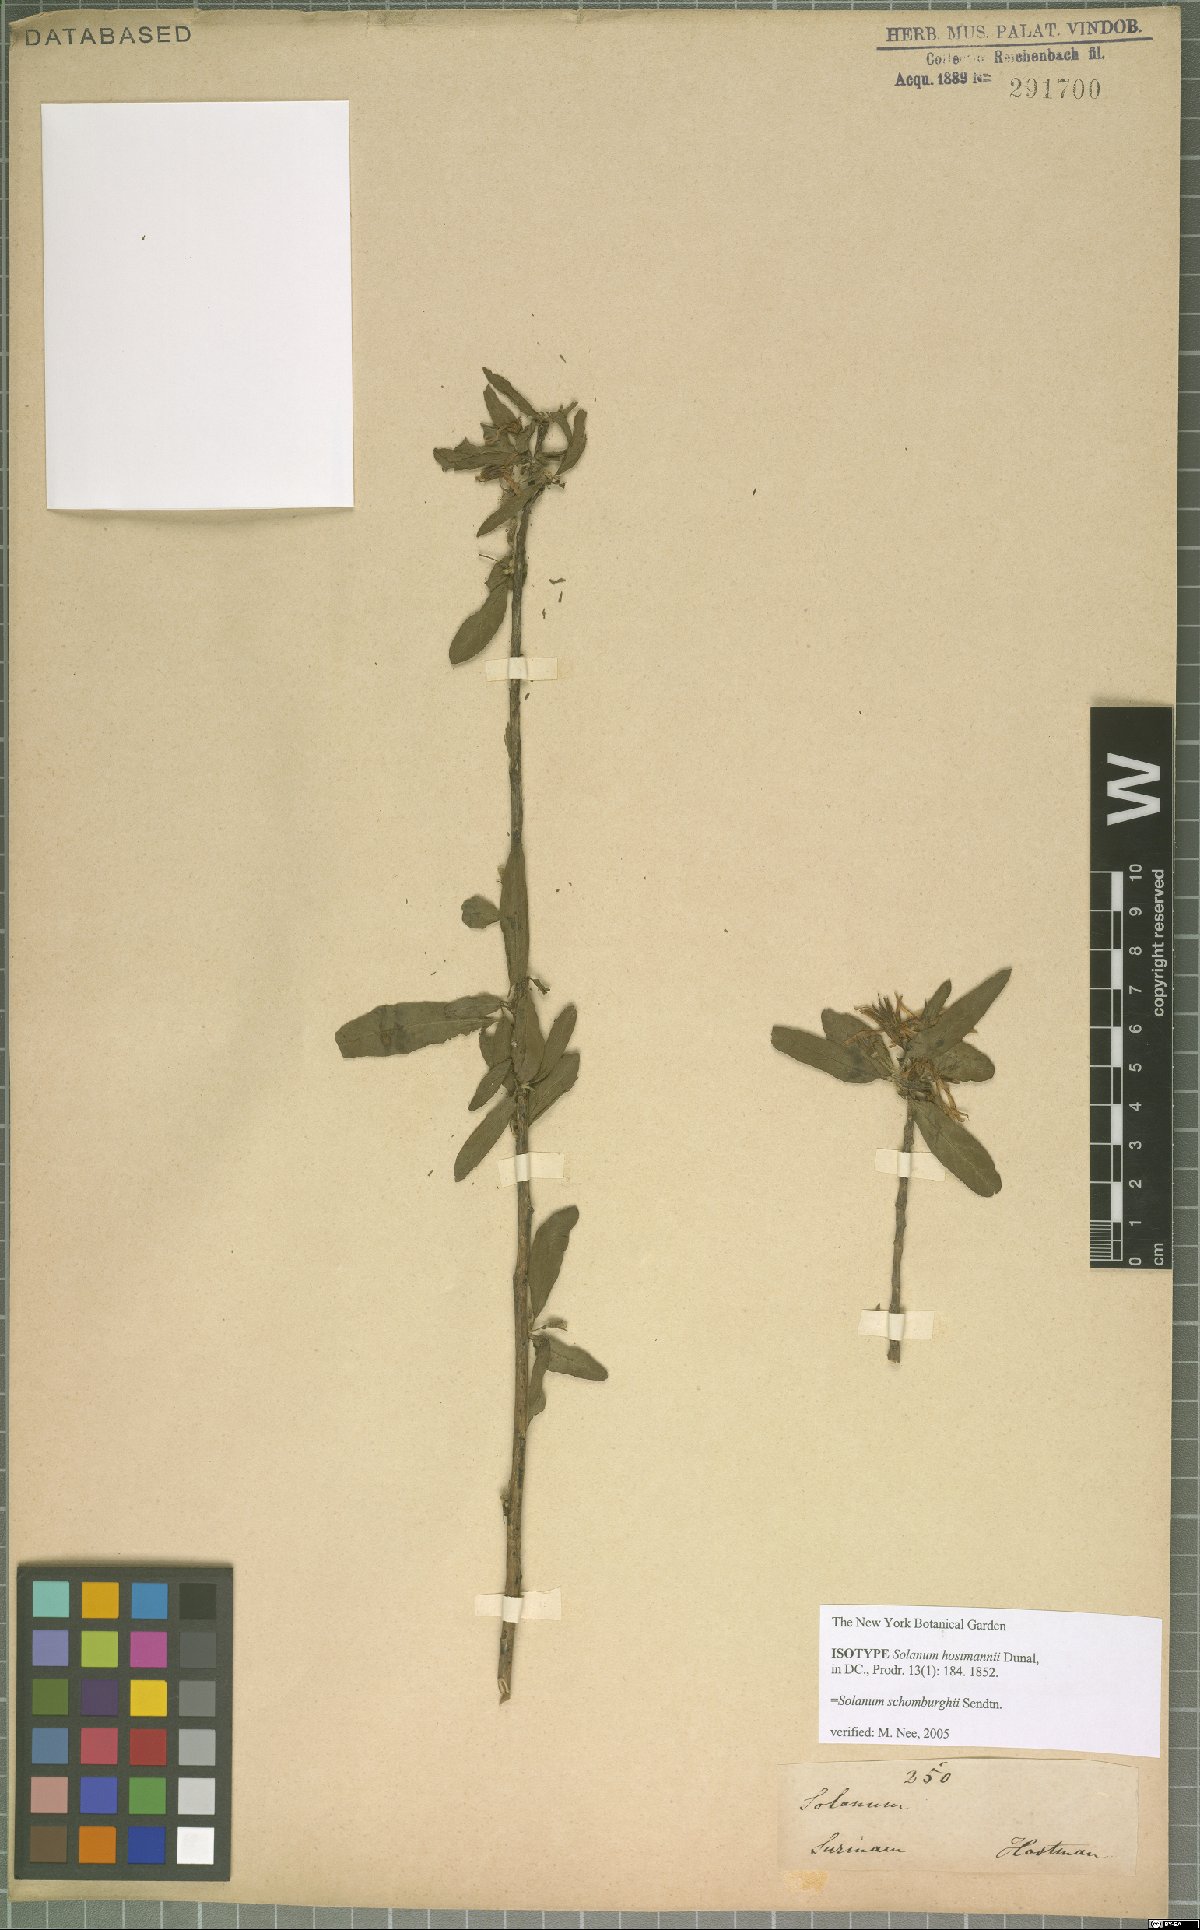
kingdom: Plantae
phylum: Tracheophyta
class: Magnoliopsida
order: Solanales
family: Solanaceae
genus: Solanum
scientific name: Solanum schomburgkii
